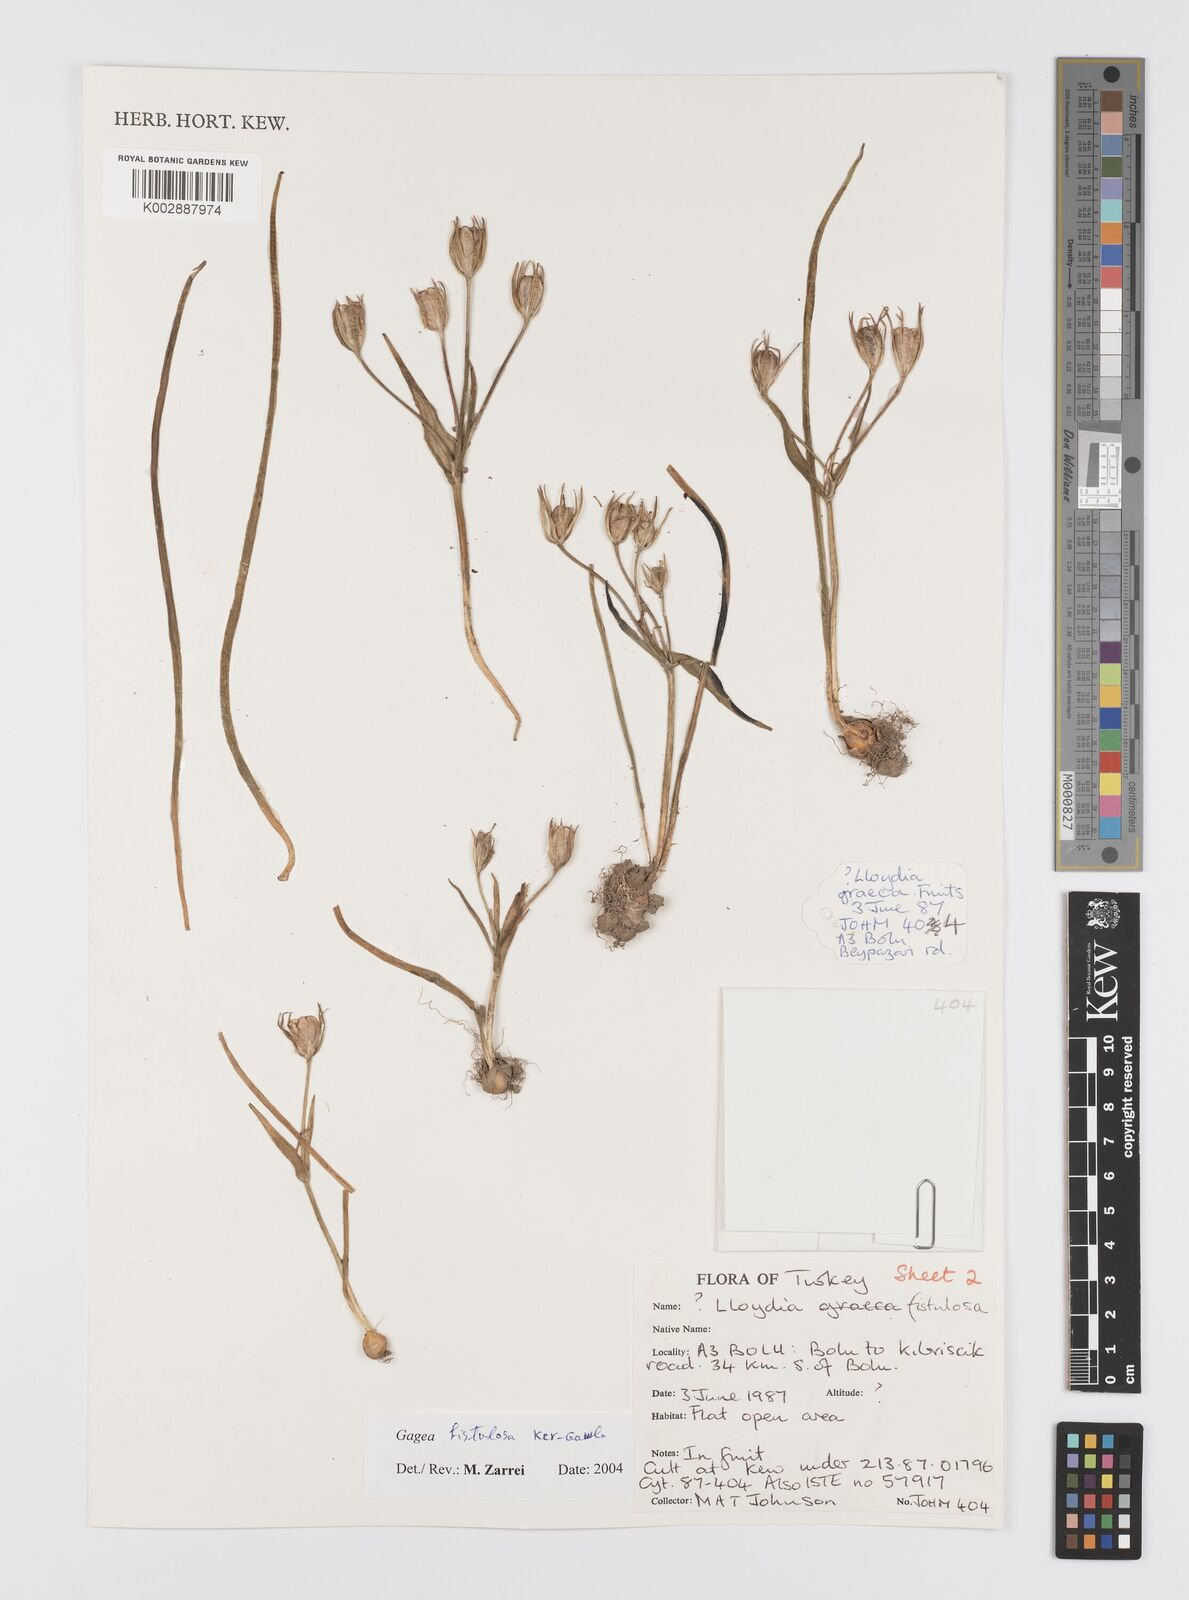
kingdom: Plantae
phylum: Tracheophyta
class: Liliopsida
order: Liliales
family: Liliaceae
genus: Gagea
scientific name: Gagea bohemica
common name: Early star-of-bethlehem
